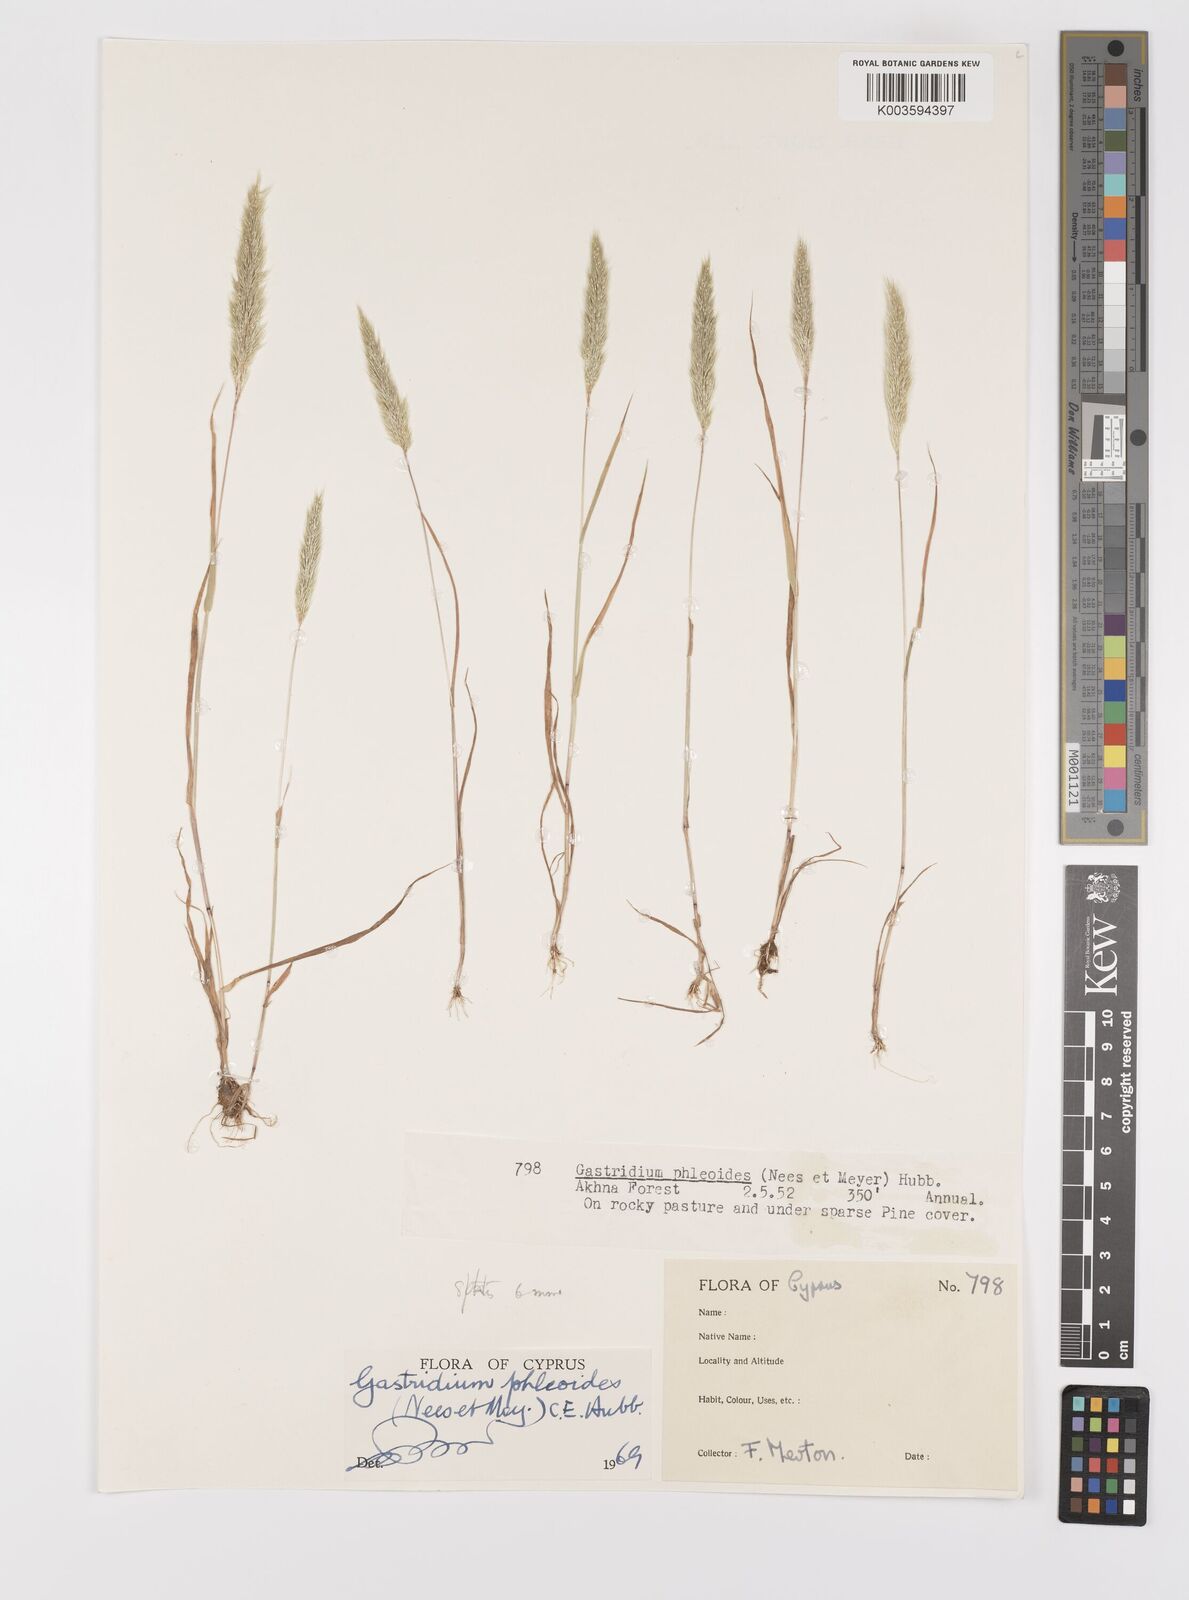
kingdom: Plantae
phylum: Tracheophyta
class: Liliopsida
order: Poales
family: Poaceae
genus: Gastridium
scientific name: Gastridium phleoides
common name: Nit grass
